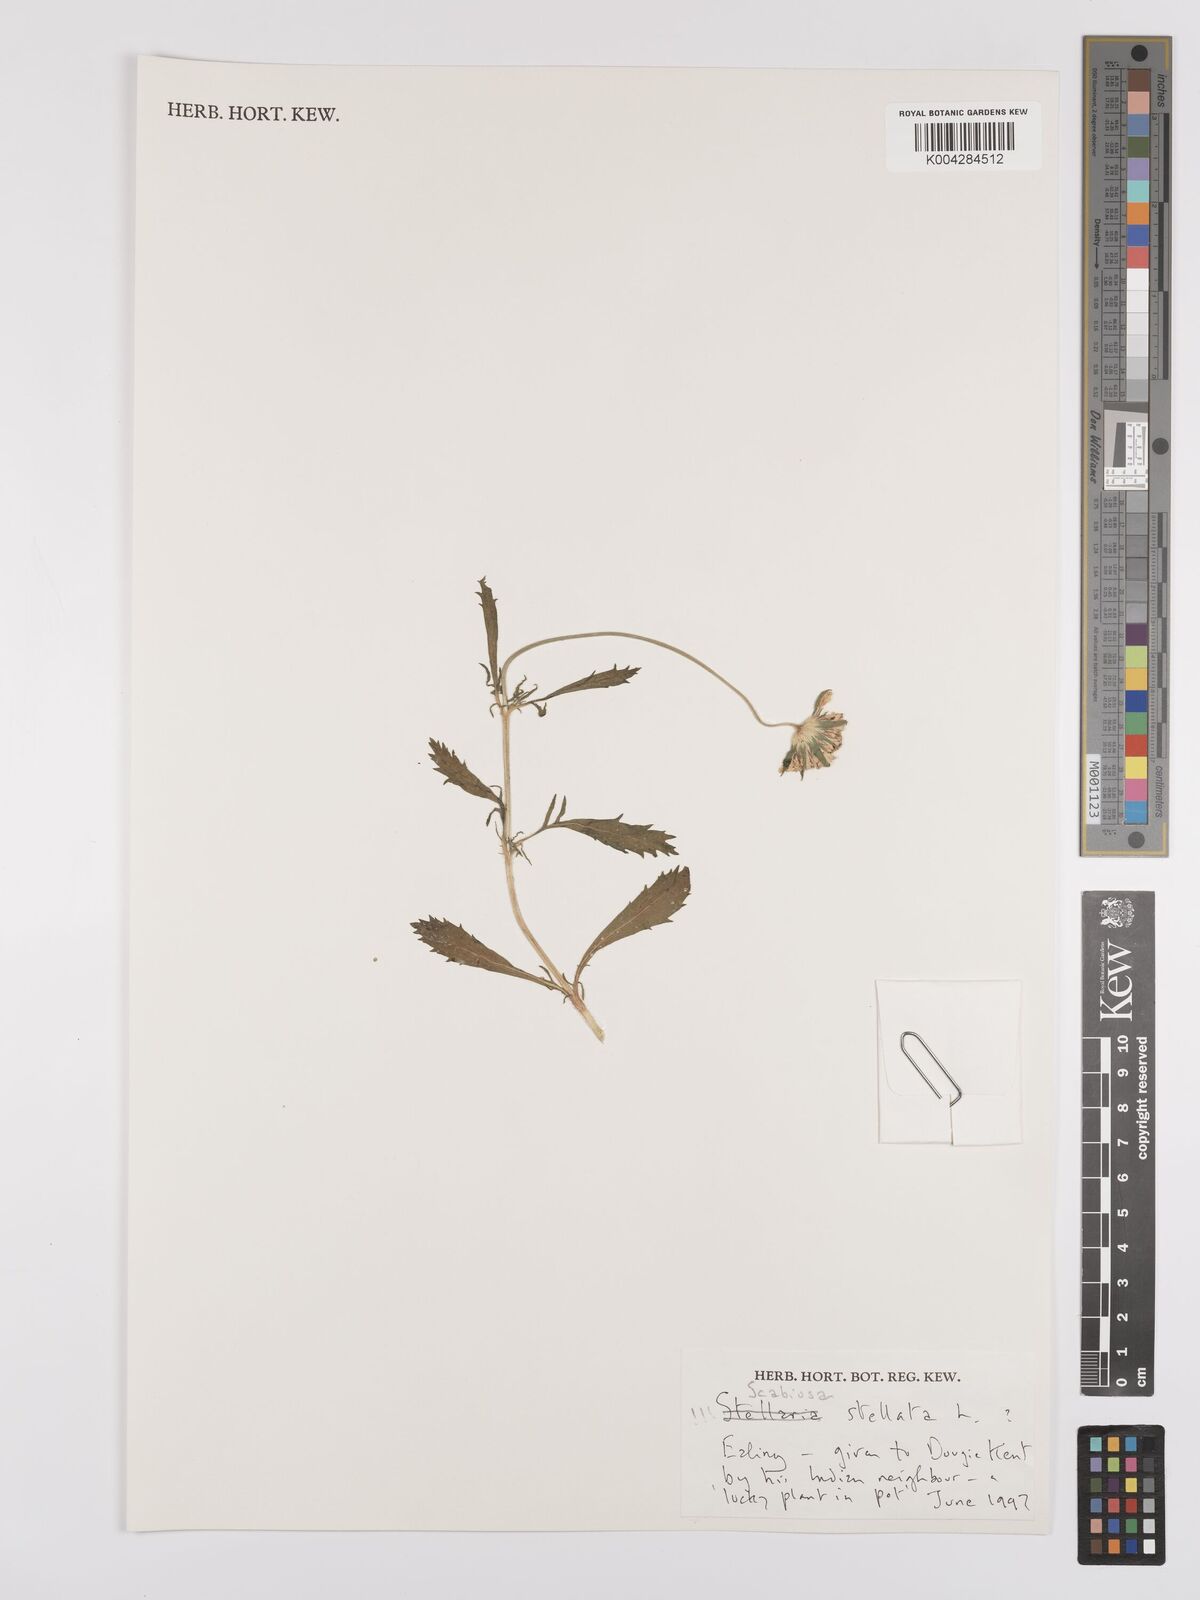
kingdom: Plantae
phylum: Tracheophyta
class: Magnoliopsida
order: Dipsacales
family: Caprifoliaceae
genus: Lomelosia
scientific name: Lomelosia stellata
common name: Teasel
